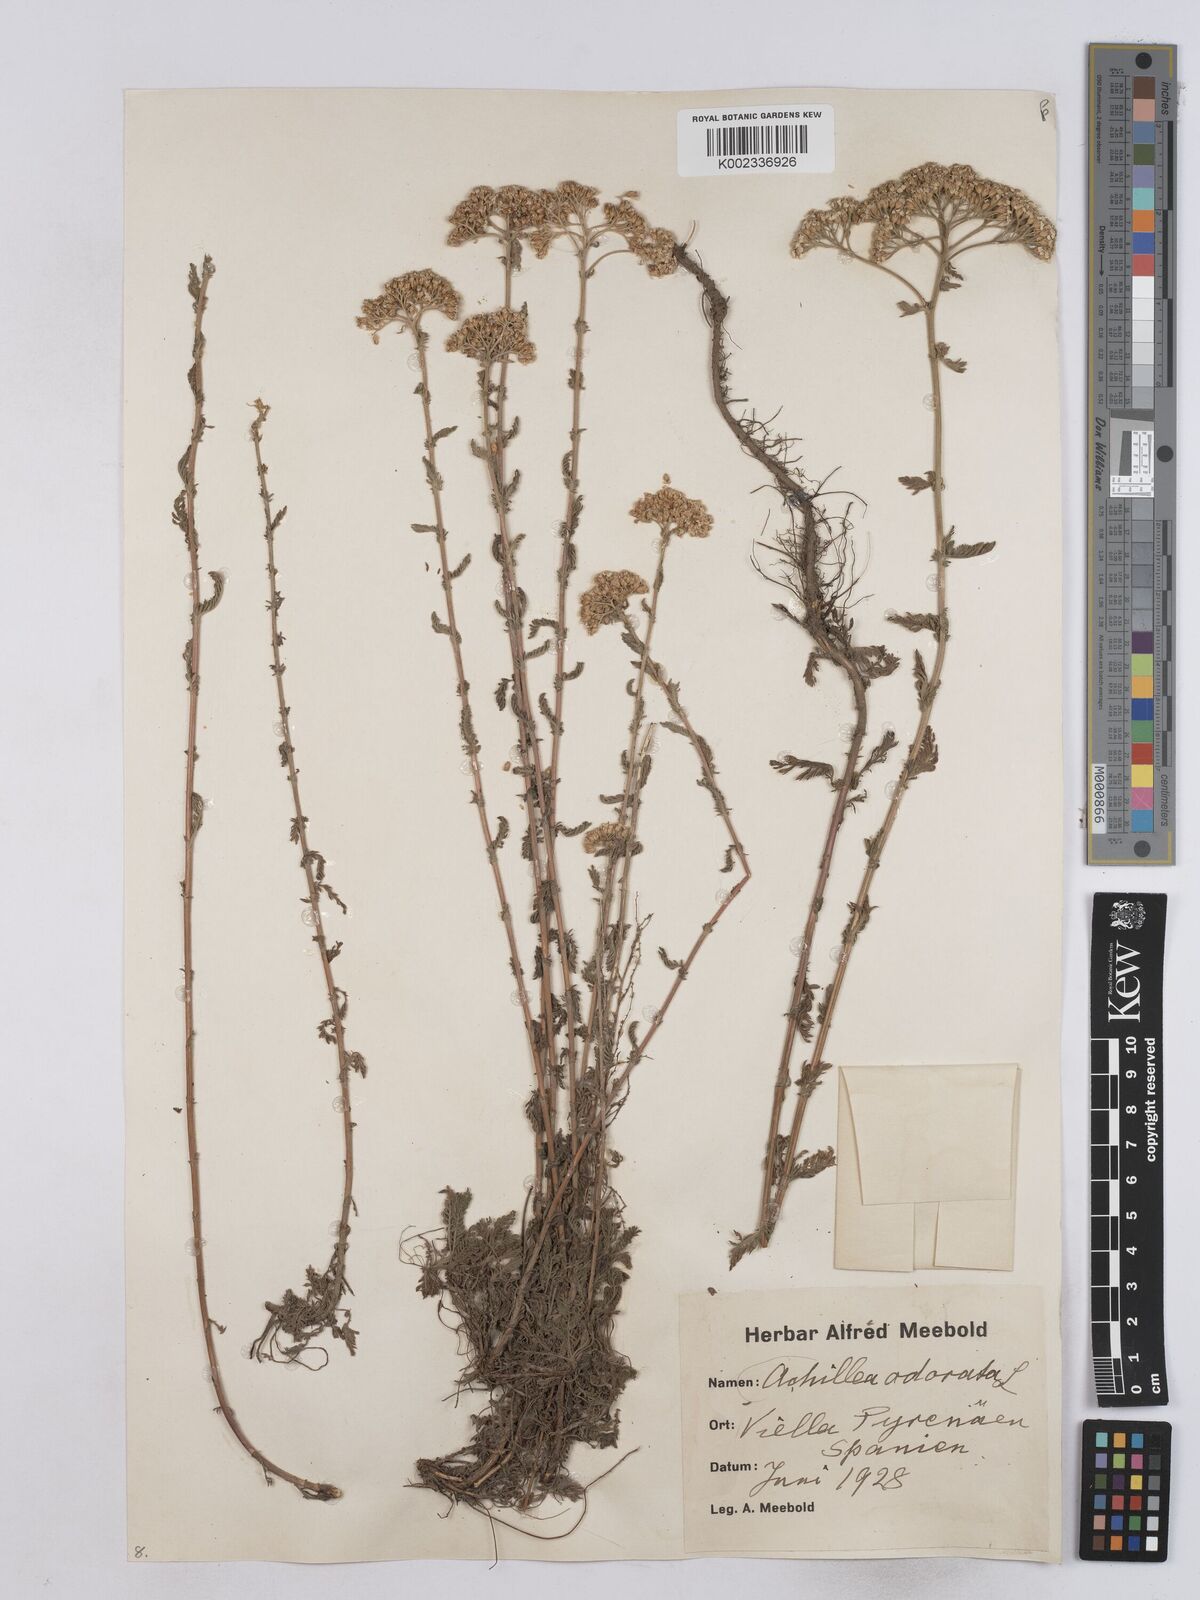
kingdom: Plantae
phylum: Tracheophyta
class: Magnoliopsida
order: Asterales
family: Asteraceae
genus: Achillea
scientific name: Achillea odorata
